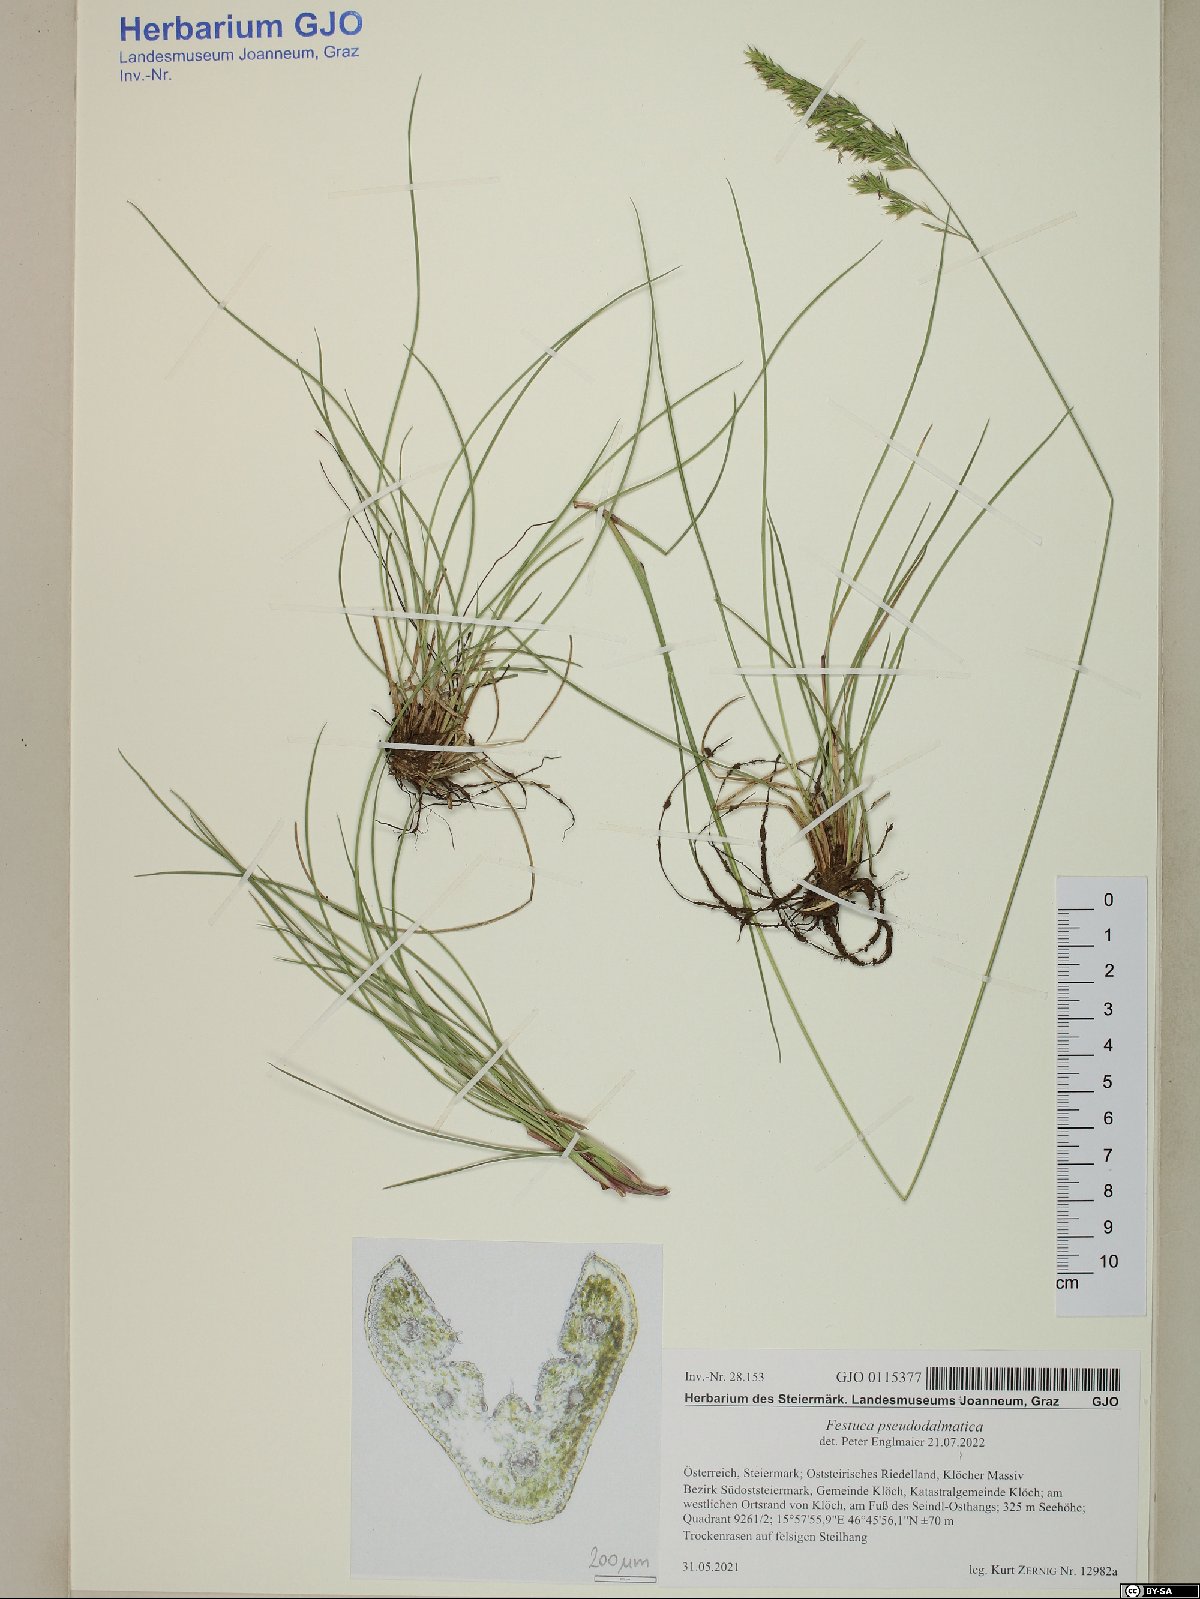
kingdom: Plantae
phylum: Tracheophyta
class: Liliopsida
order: Poales
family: Poaceae
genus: Festuca
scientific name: Festuca pseudodalmatica
